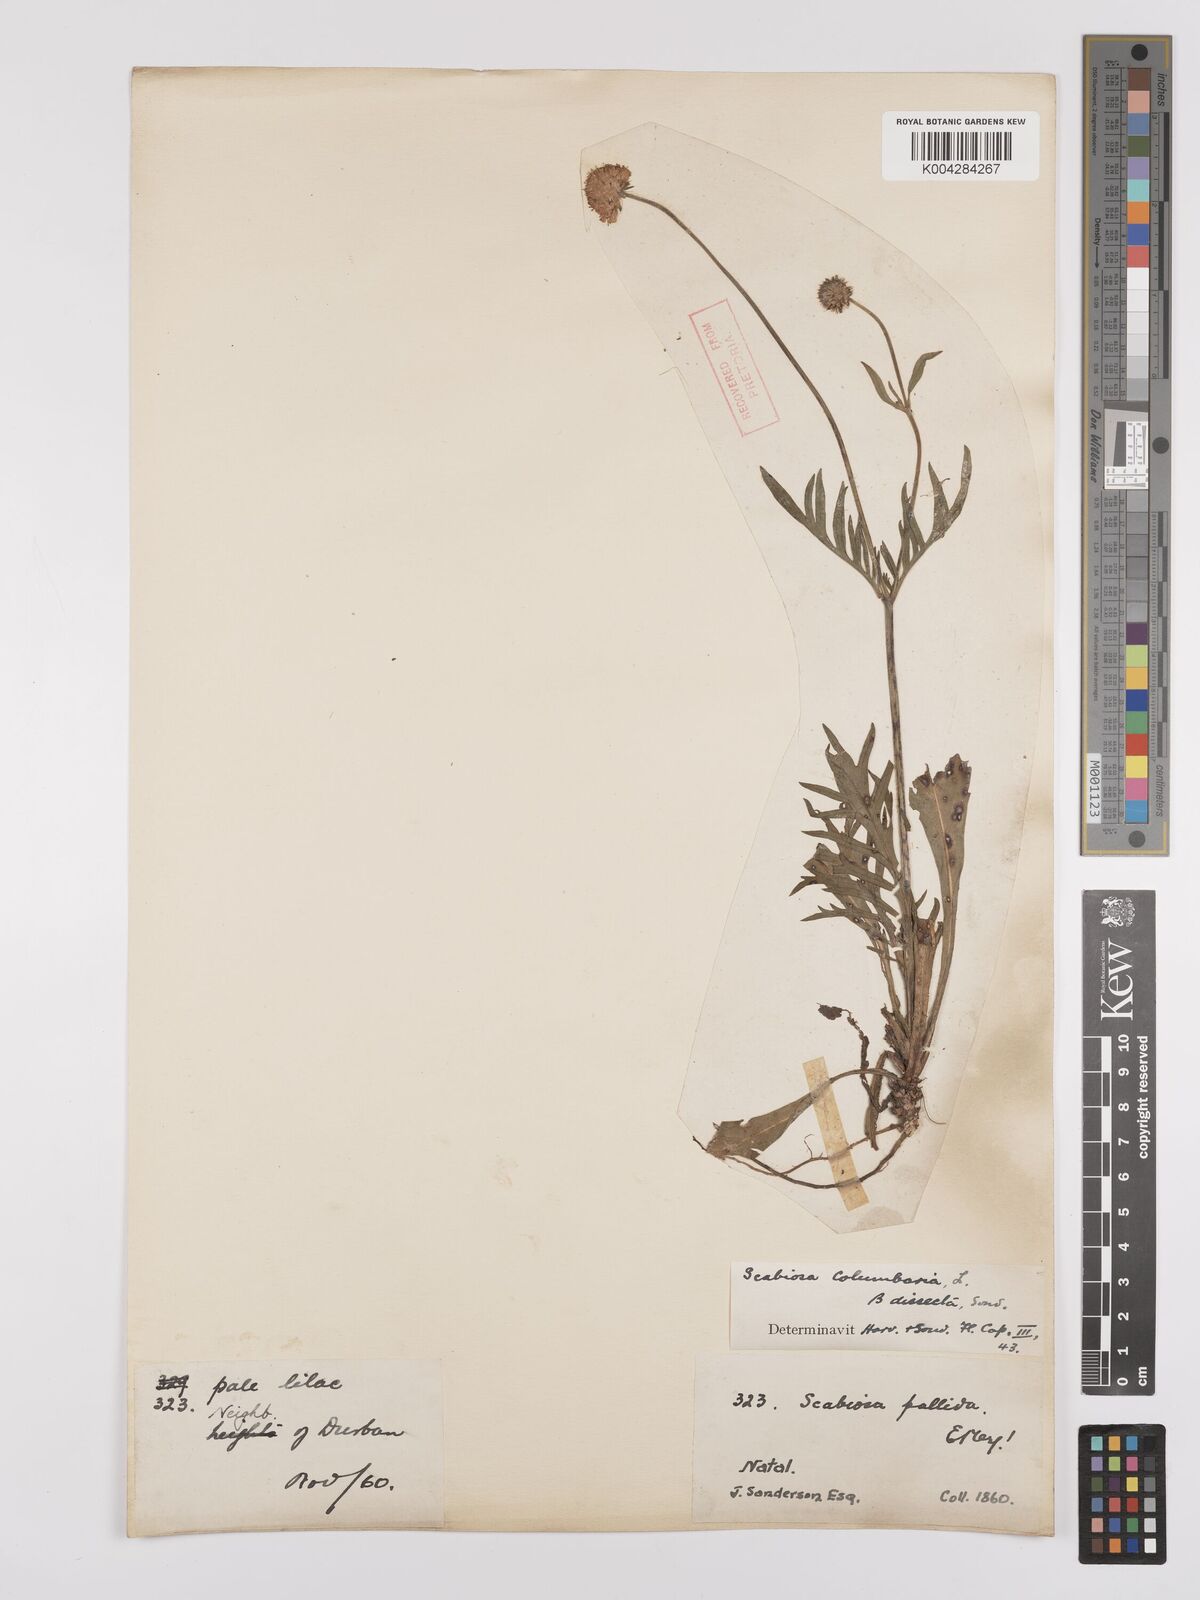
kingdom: Plantae
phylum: Tracheophyta
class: Magnoliopsida
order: Dipsacales
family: Caprifoliaceae
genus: Scabiosa
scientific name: Scabiosa columbaria
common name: Small scabious
